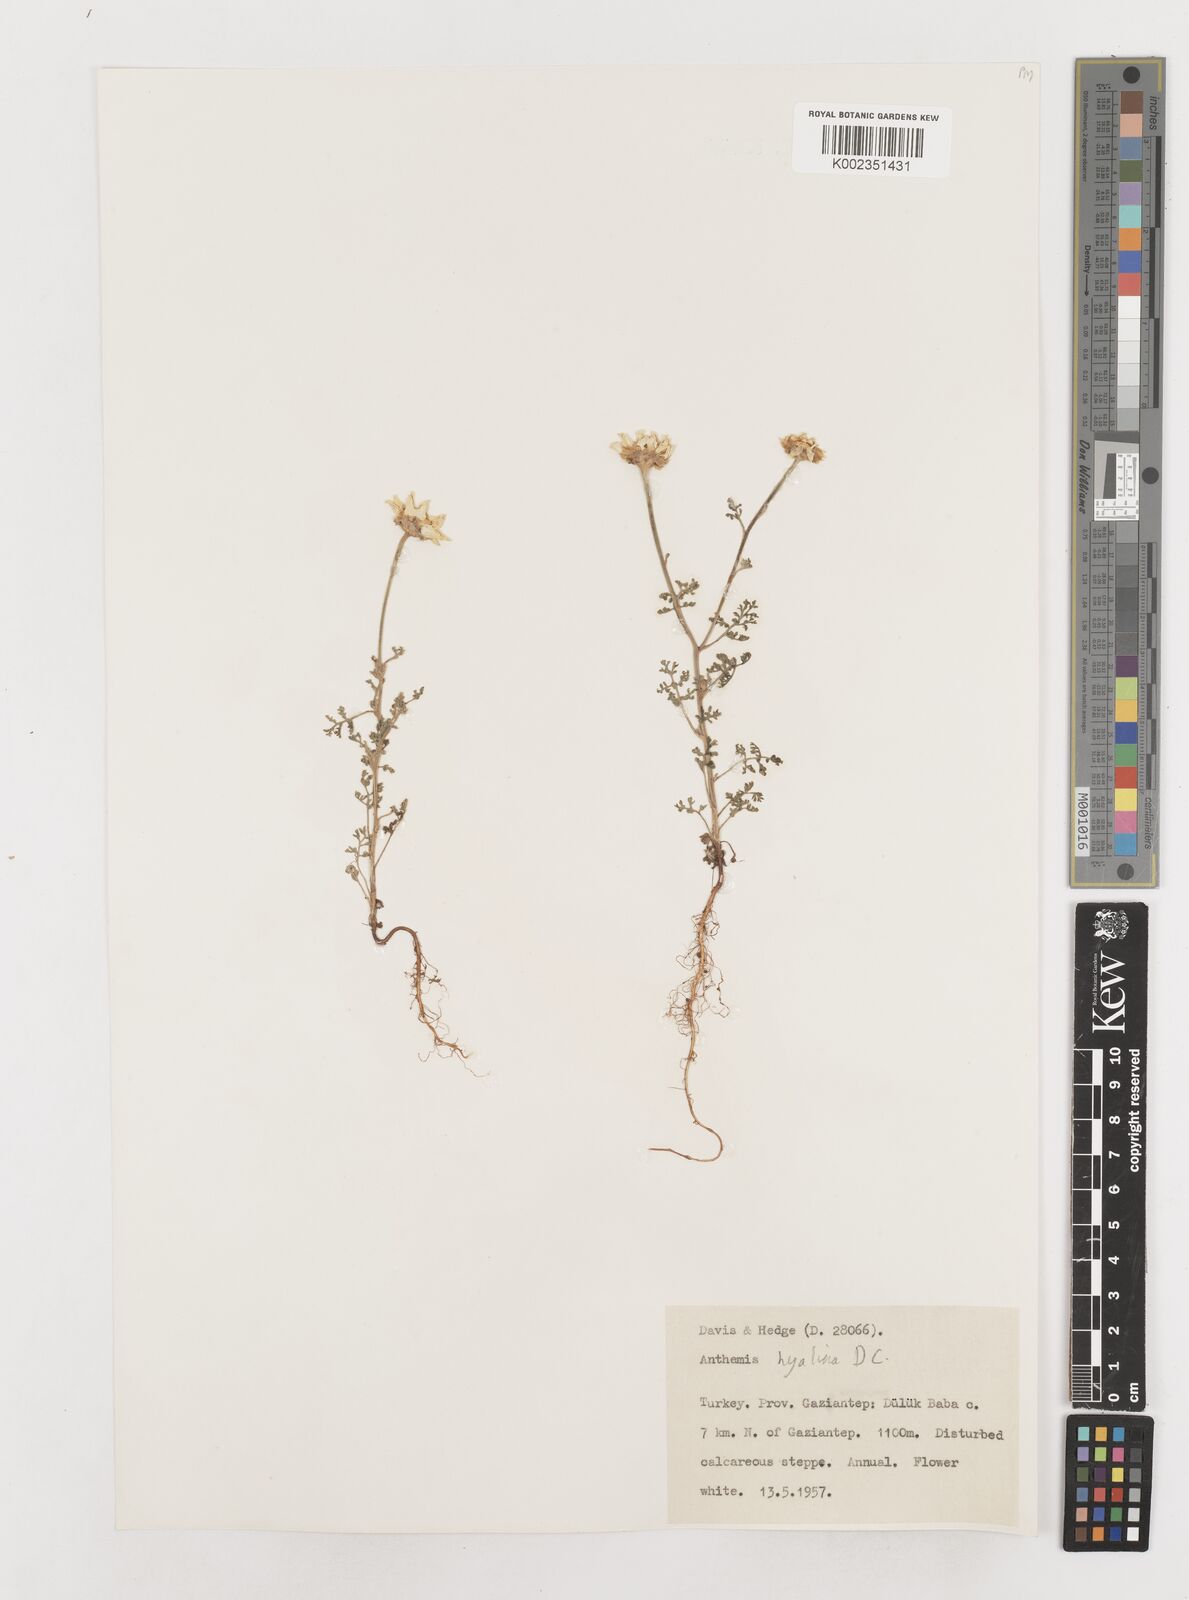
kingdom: Plantae
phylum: Tracheophyta
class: Magnoliopsida
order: Asterales
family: Asteraceae
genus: Anthemis
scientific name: Anthemis hyalina
